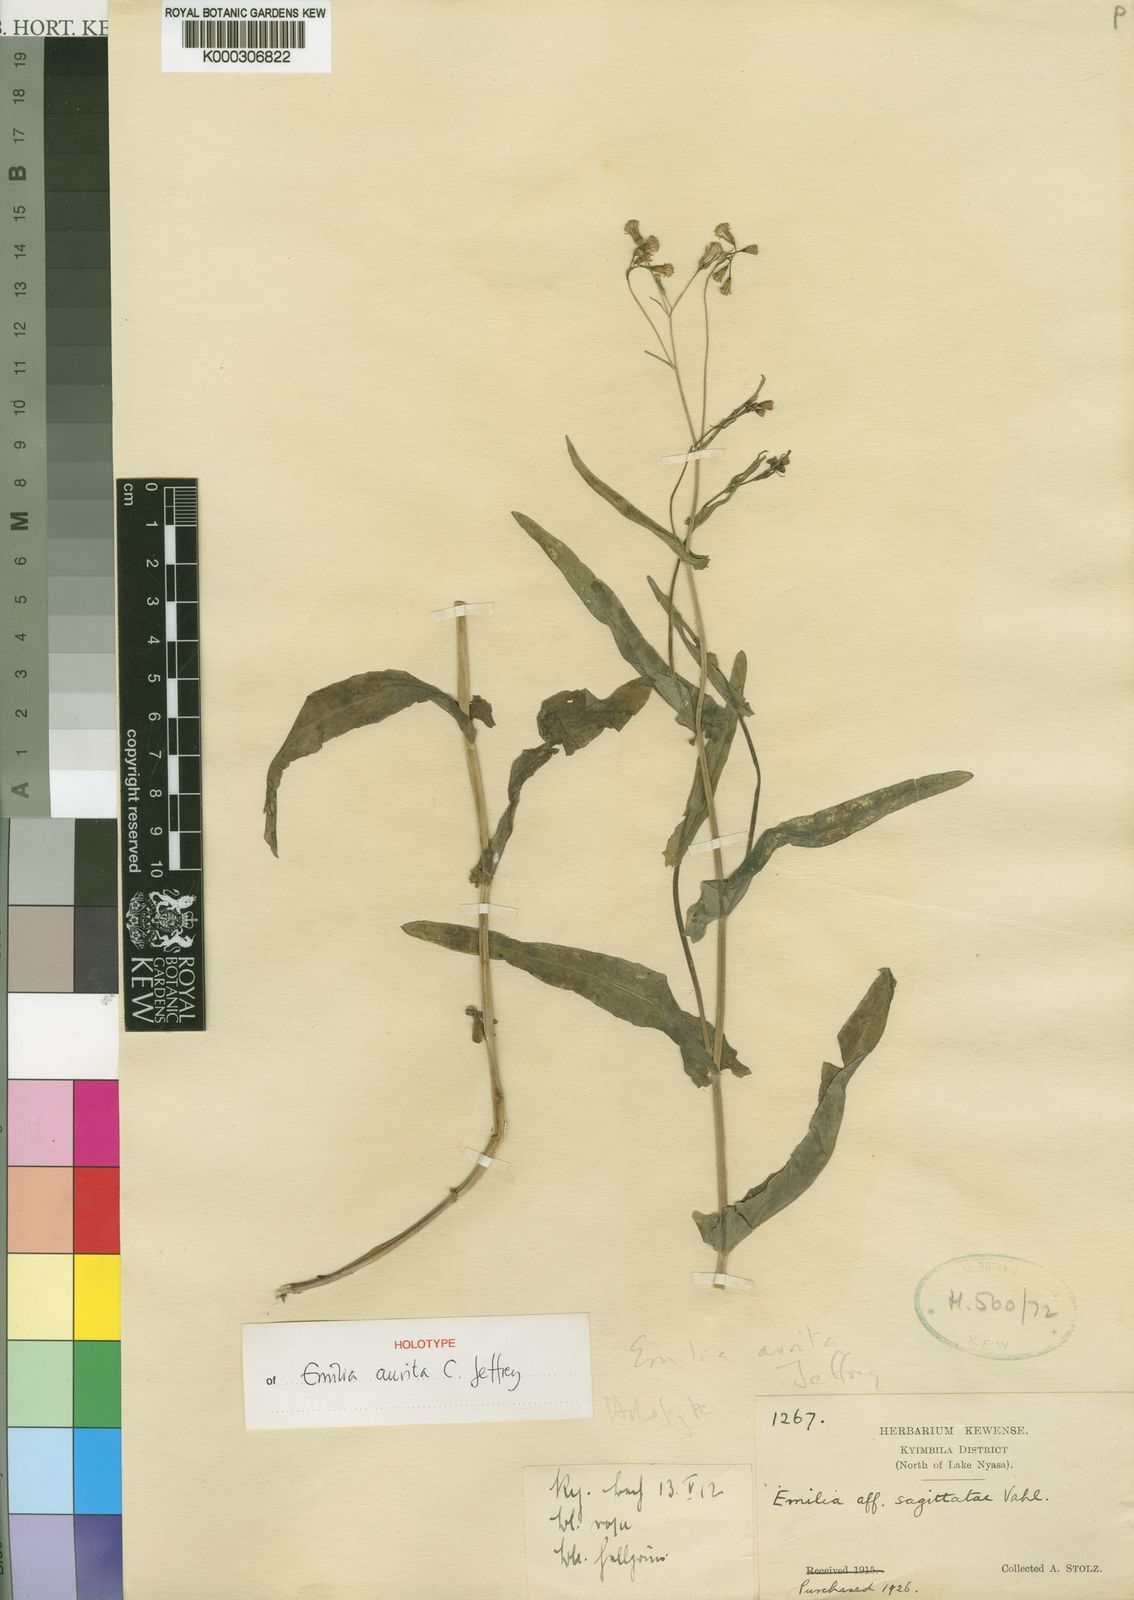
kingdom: Plantae
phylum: Tracheophyta
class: Magnoliopsida
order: Asterales
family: Asteraceae
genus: Emilia
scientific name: Emilia aurita
